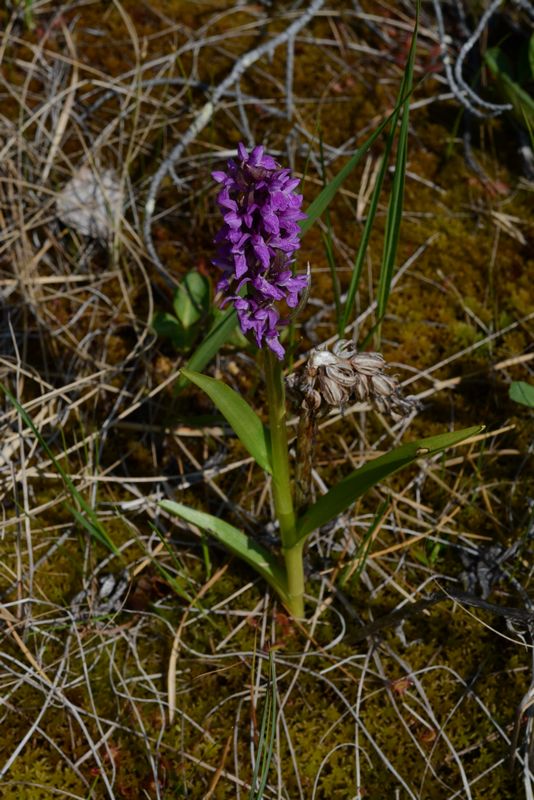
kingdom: Plantae
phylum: Tracheophyta
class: Liliopsida
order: Asparagales
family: Orchidaceae
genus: Dactylorhiza
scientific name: Dactylorhiza incarnata
